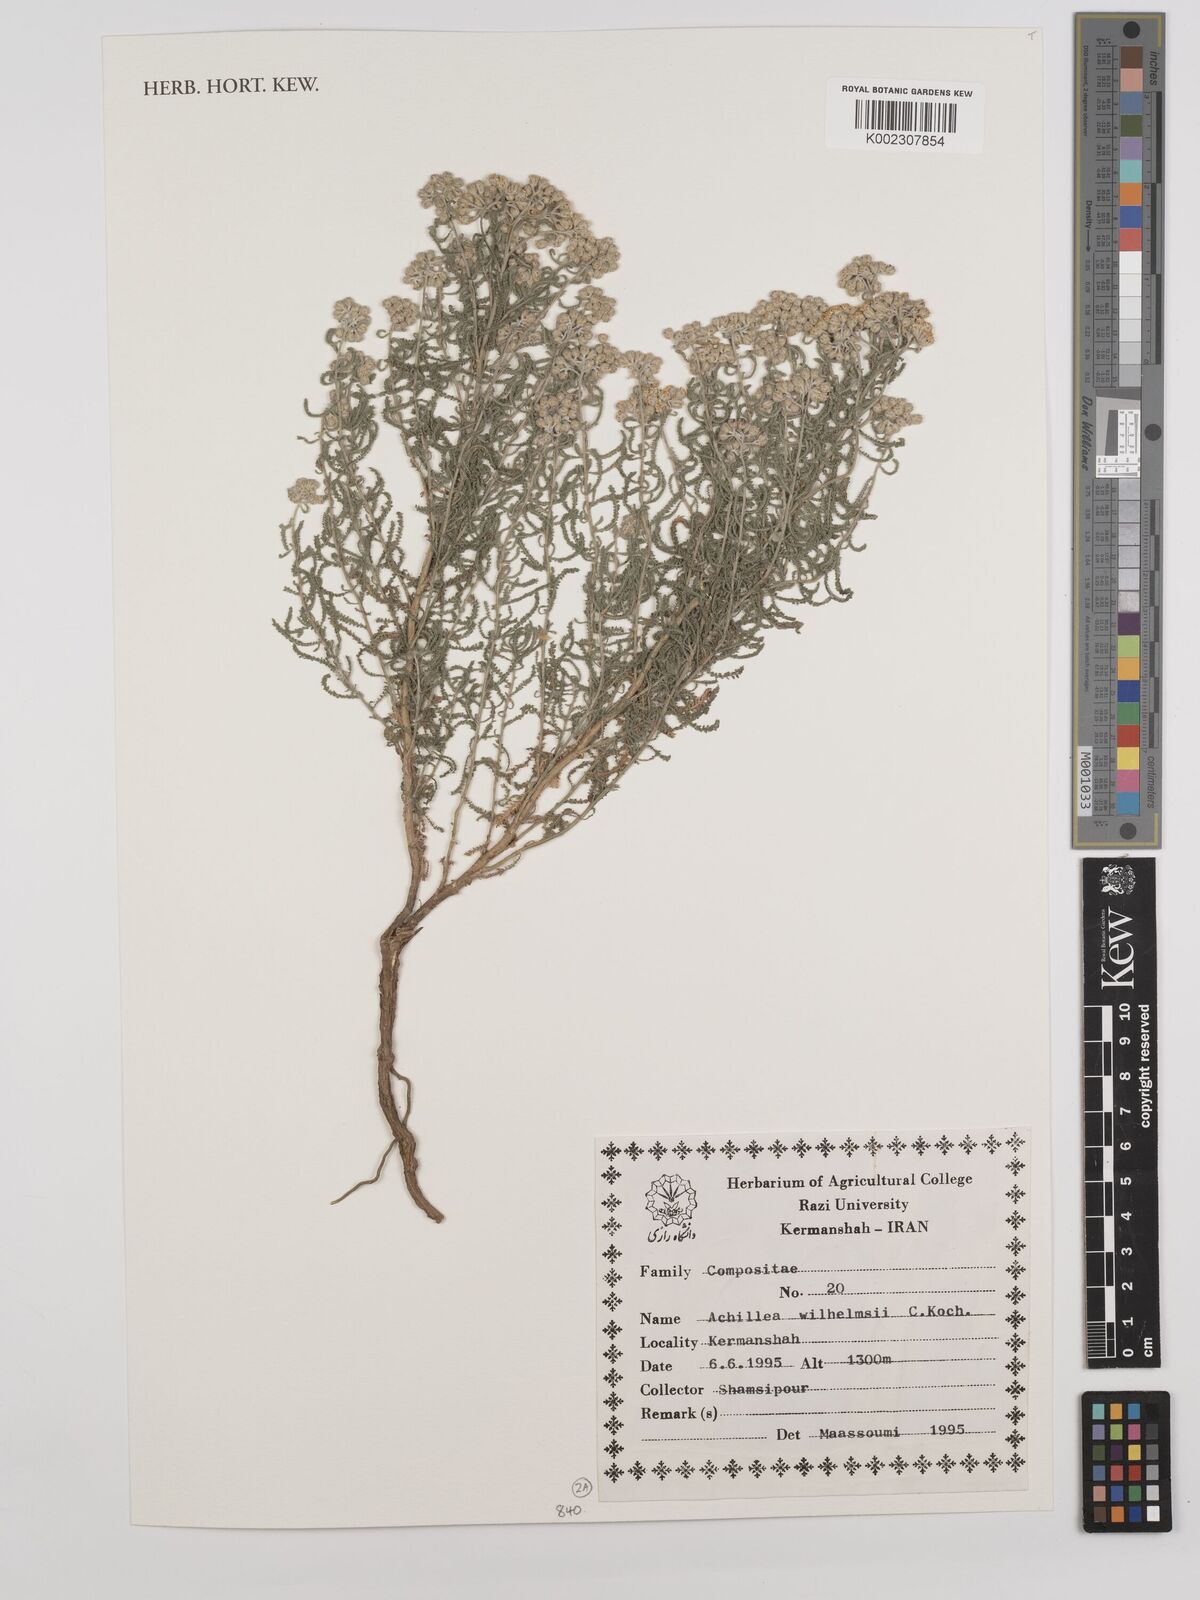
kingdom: Plantae
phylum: Tracheophyta
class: Magnoliopsida
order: Asterales
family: Asteraceae
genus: Achillea
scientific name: Achillea wilhelmsii
